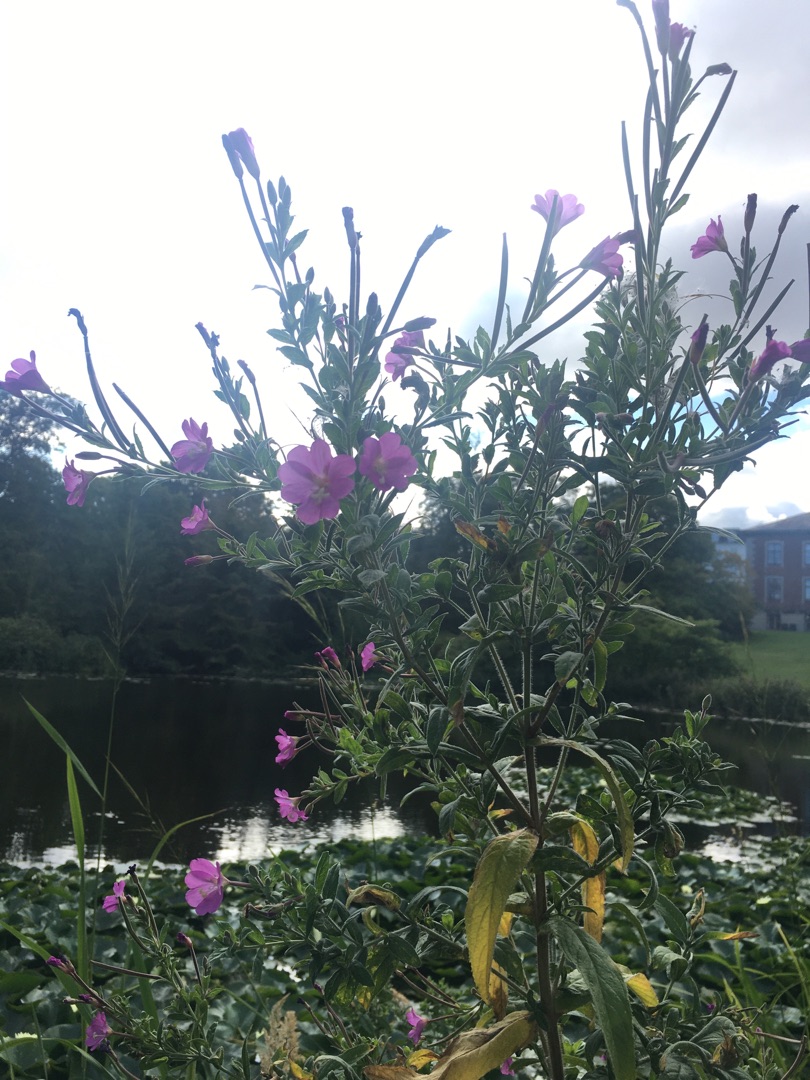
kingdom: Plantae
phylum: Tracheophyta
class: Magnoliopsida
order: Myrtales
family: Onagraceae
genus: Epilobium
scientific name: Epilobium hirsutum
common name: Lådden dueurt
